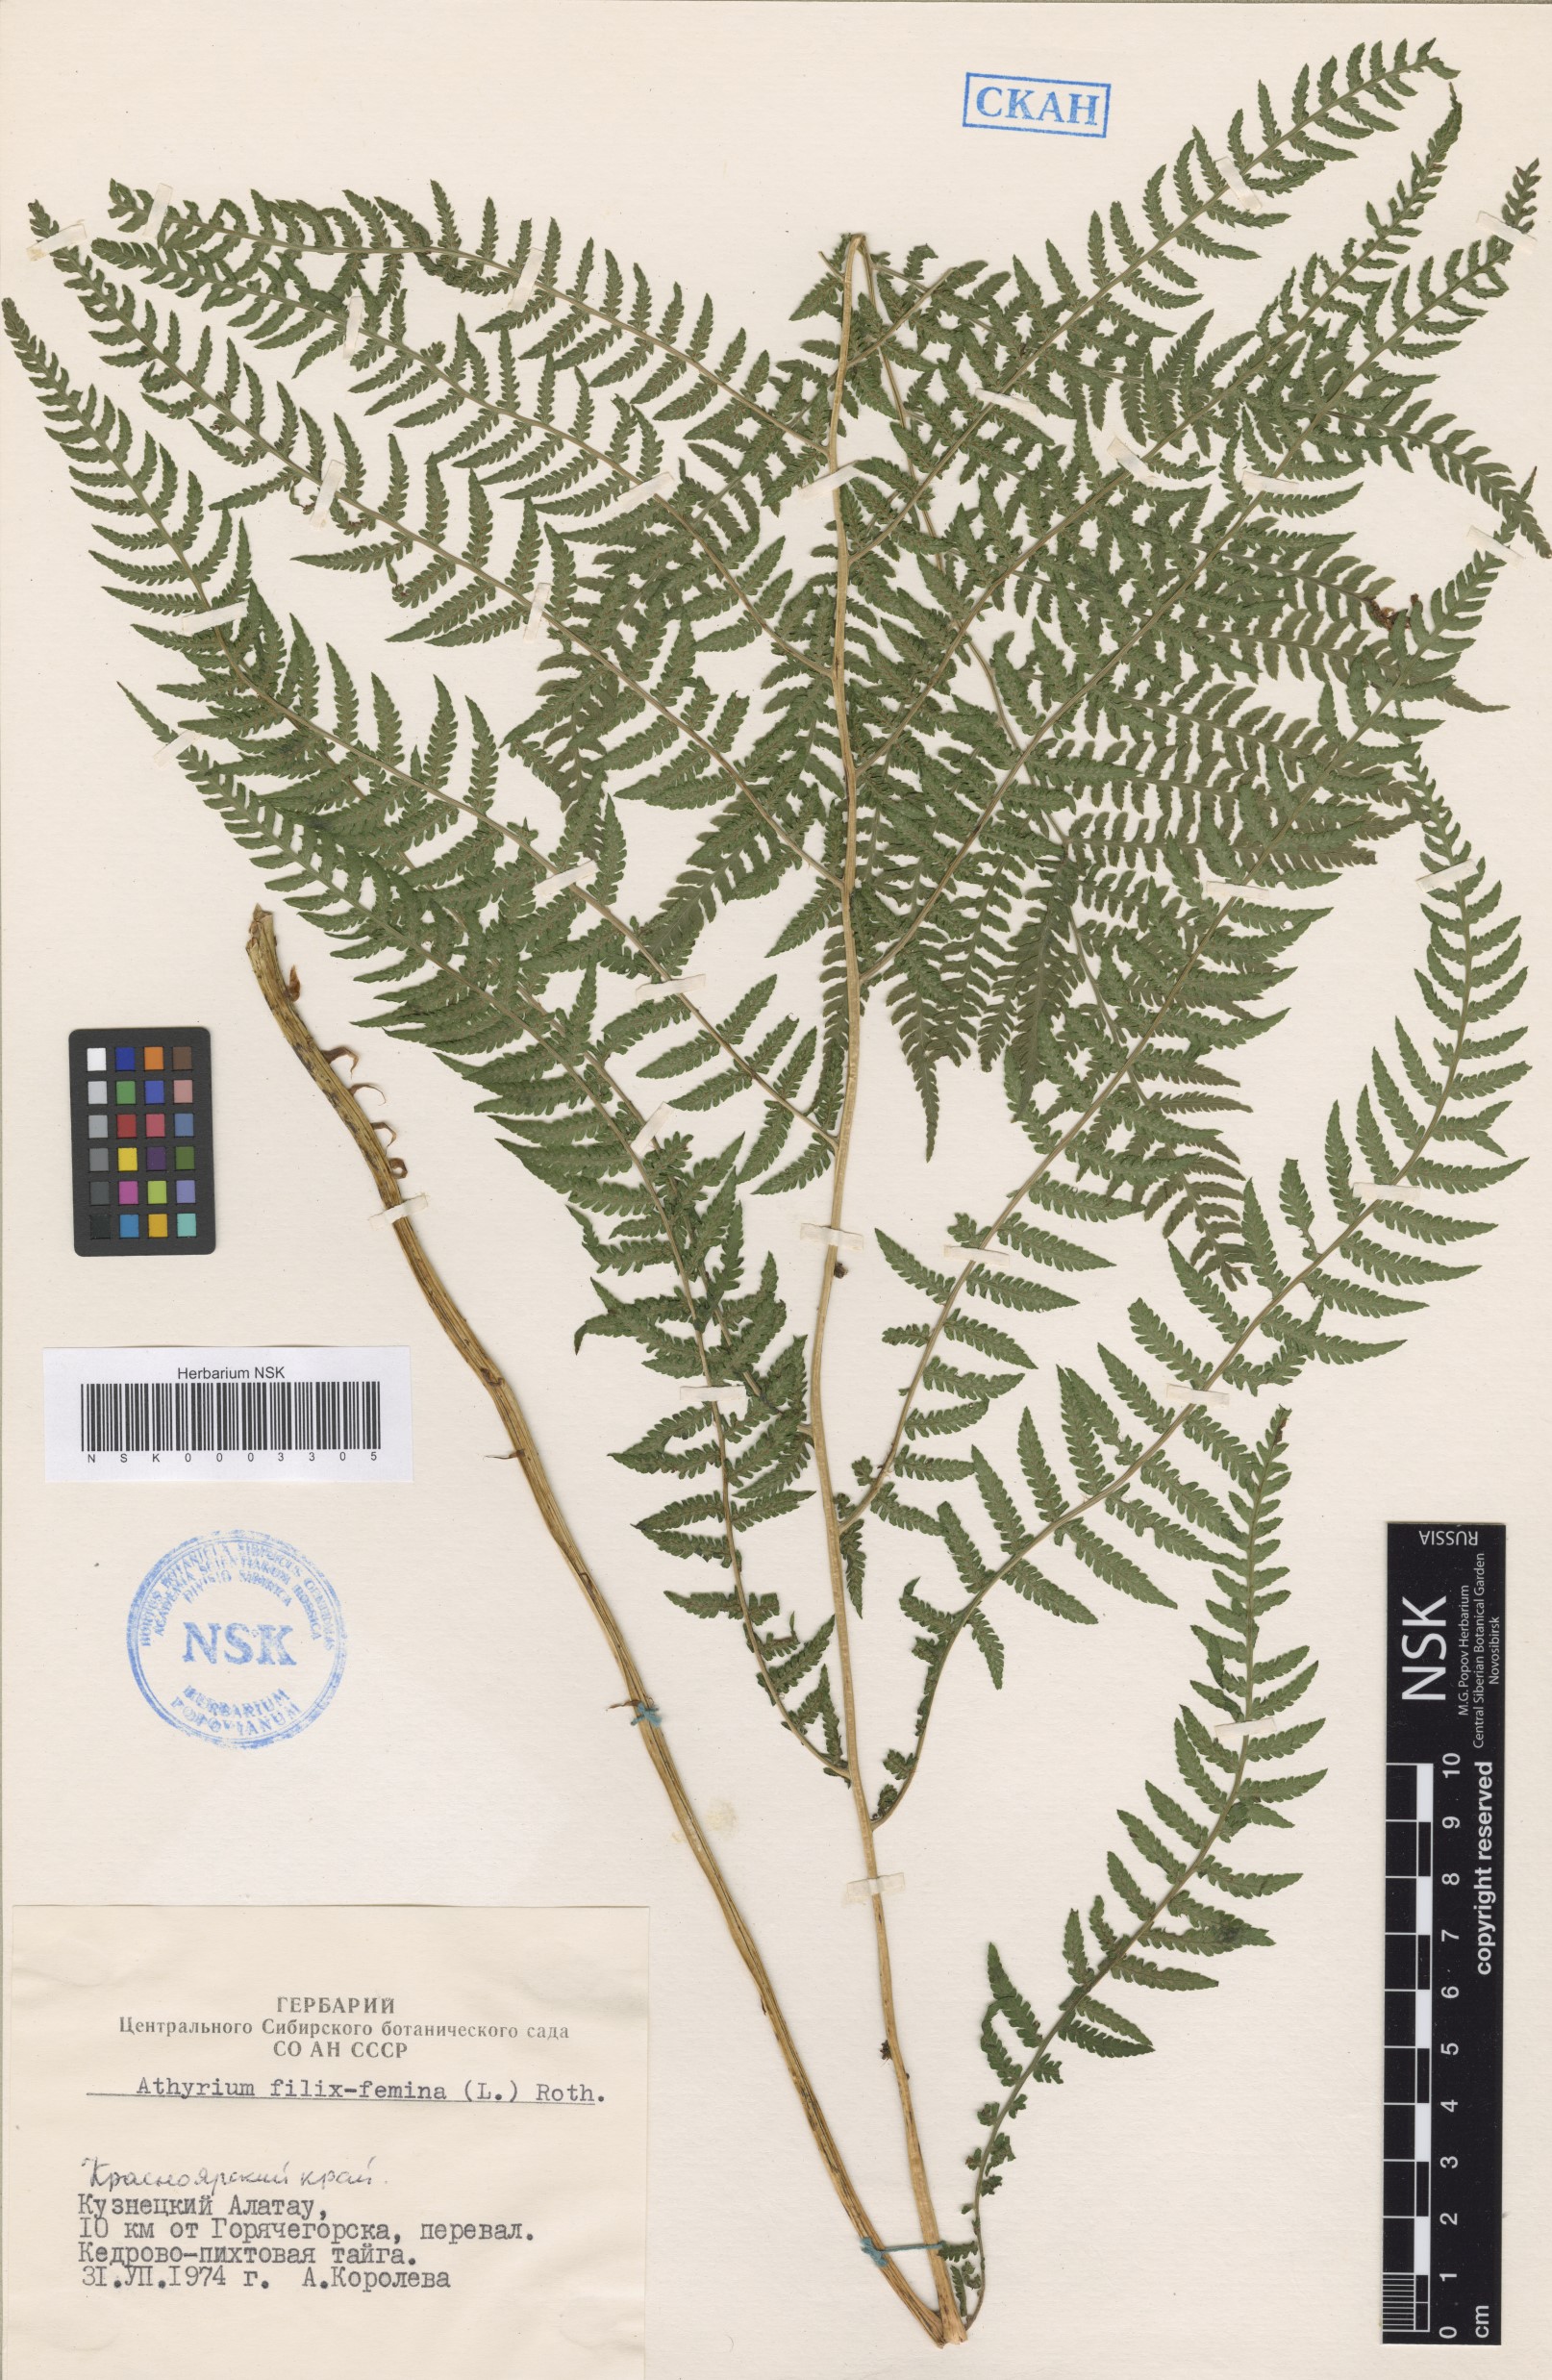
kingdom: Plantae
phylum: Tracheophyta
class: Polypodiopsida
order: Polypodiales
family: Athyriaceae
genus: Athyrium
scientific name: Athyrium filix-femina
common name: Lady fern
